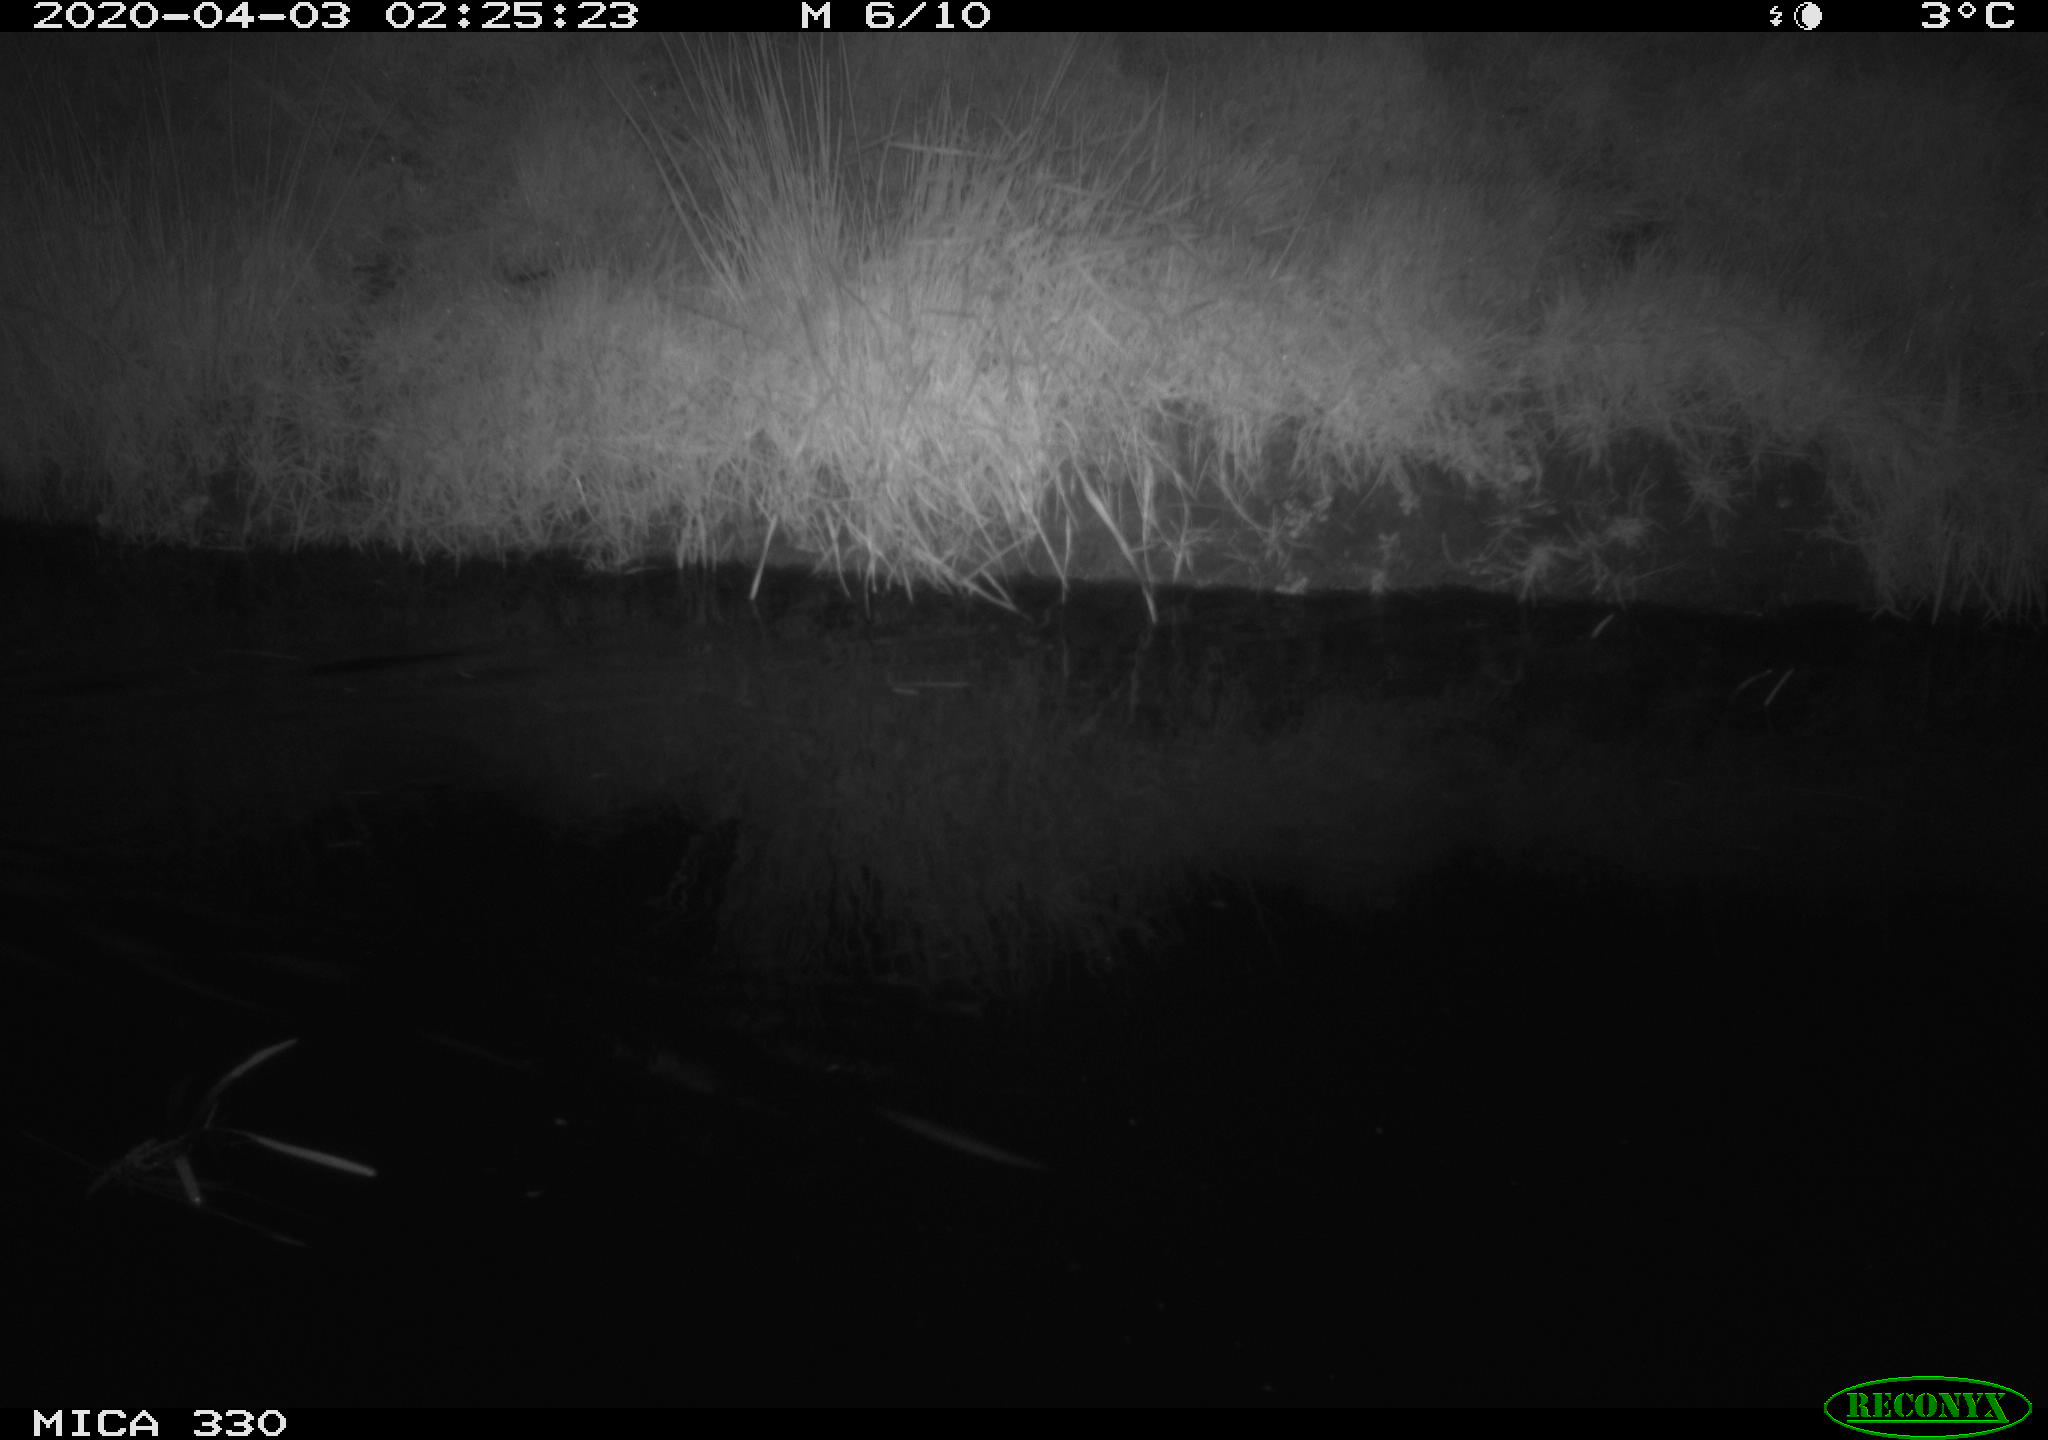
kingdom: Animalia
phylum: Chordata
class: Aves
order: Anseriformes
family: Anatidae
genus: Anas
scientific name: Anas platyrhynchos
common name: Mallard
